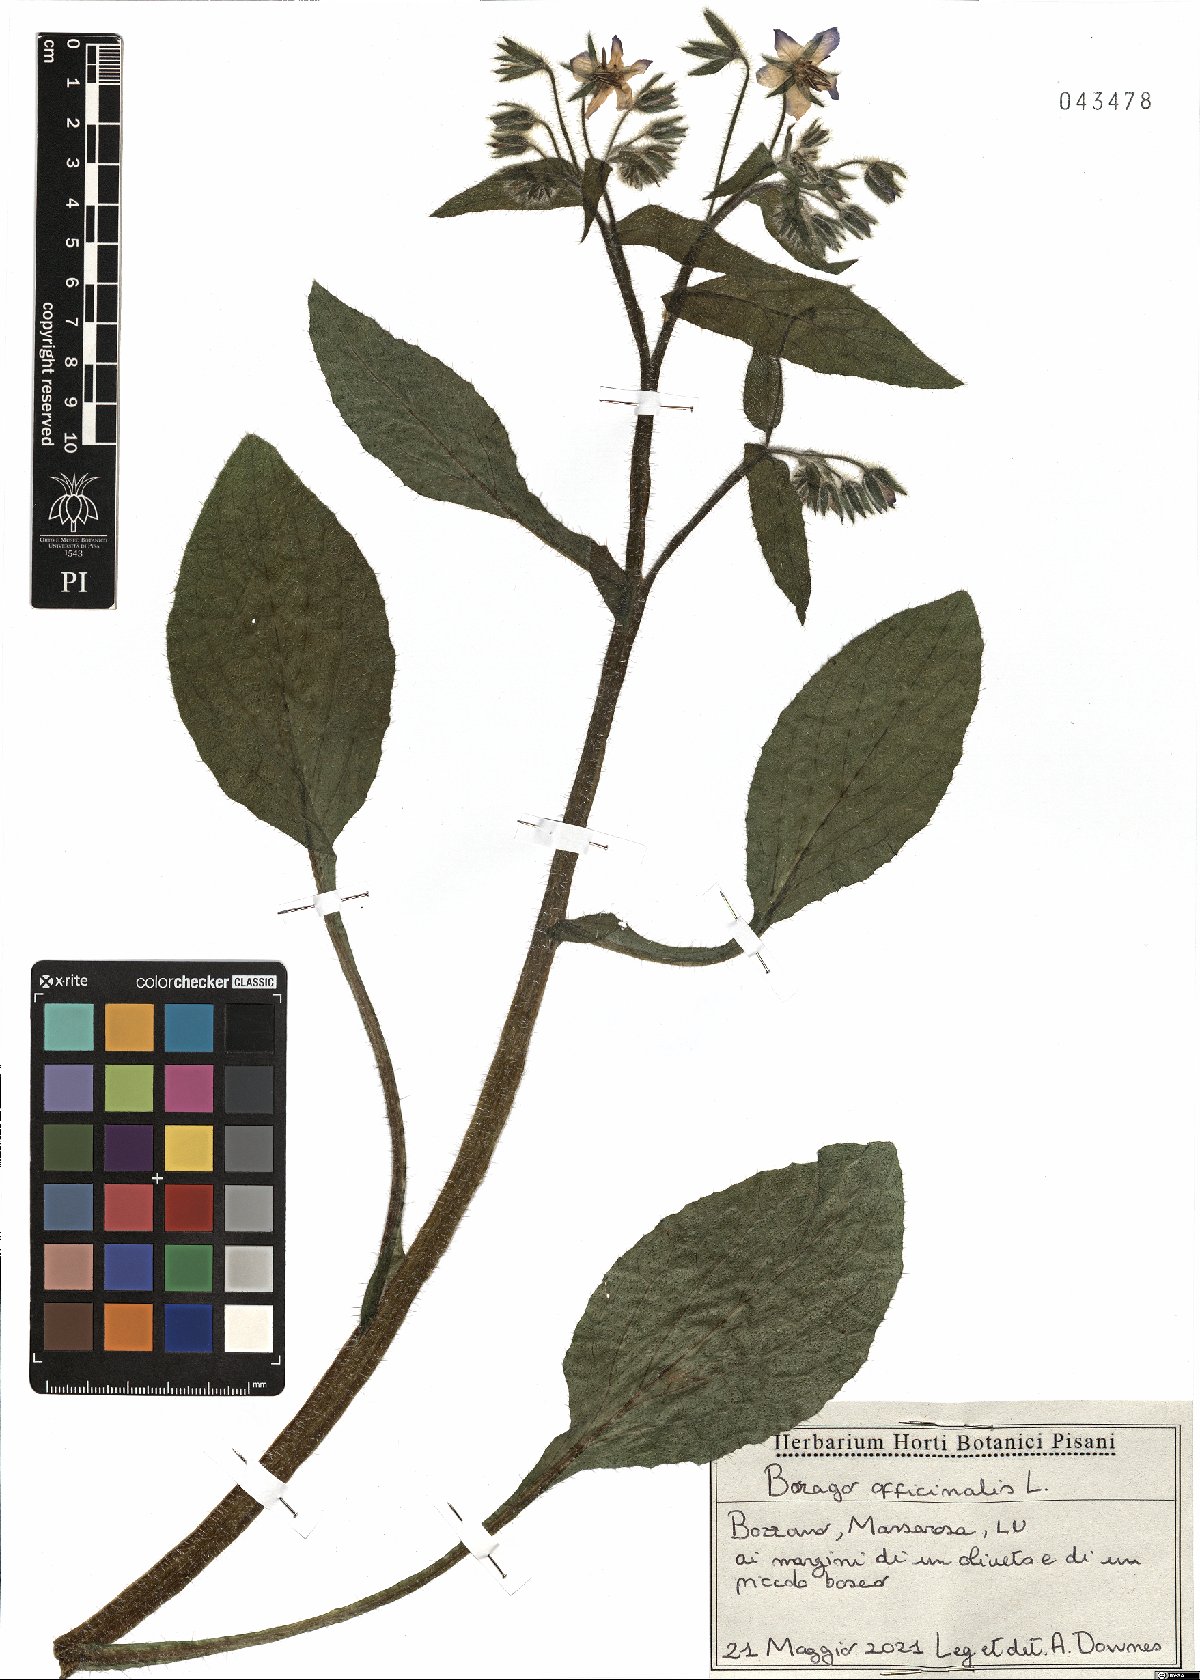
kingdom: Plantae
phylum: Tracheophyta
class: Magnoliopsida
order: Boraginales
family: Boraginaceae
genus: Borago
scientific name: Borago officinalis
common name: Borage
